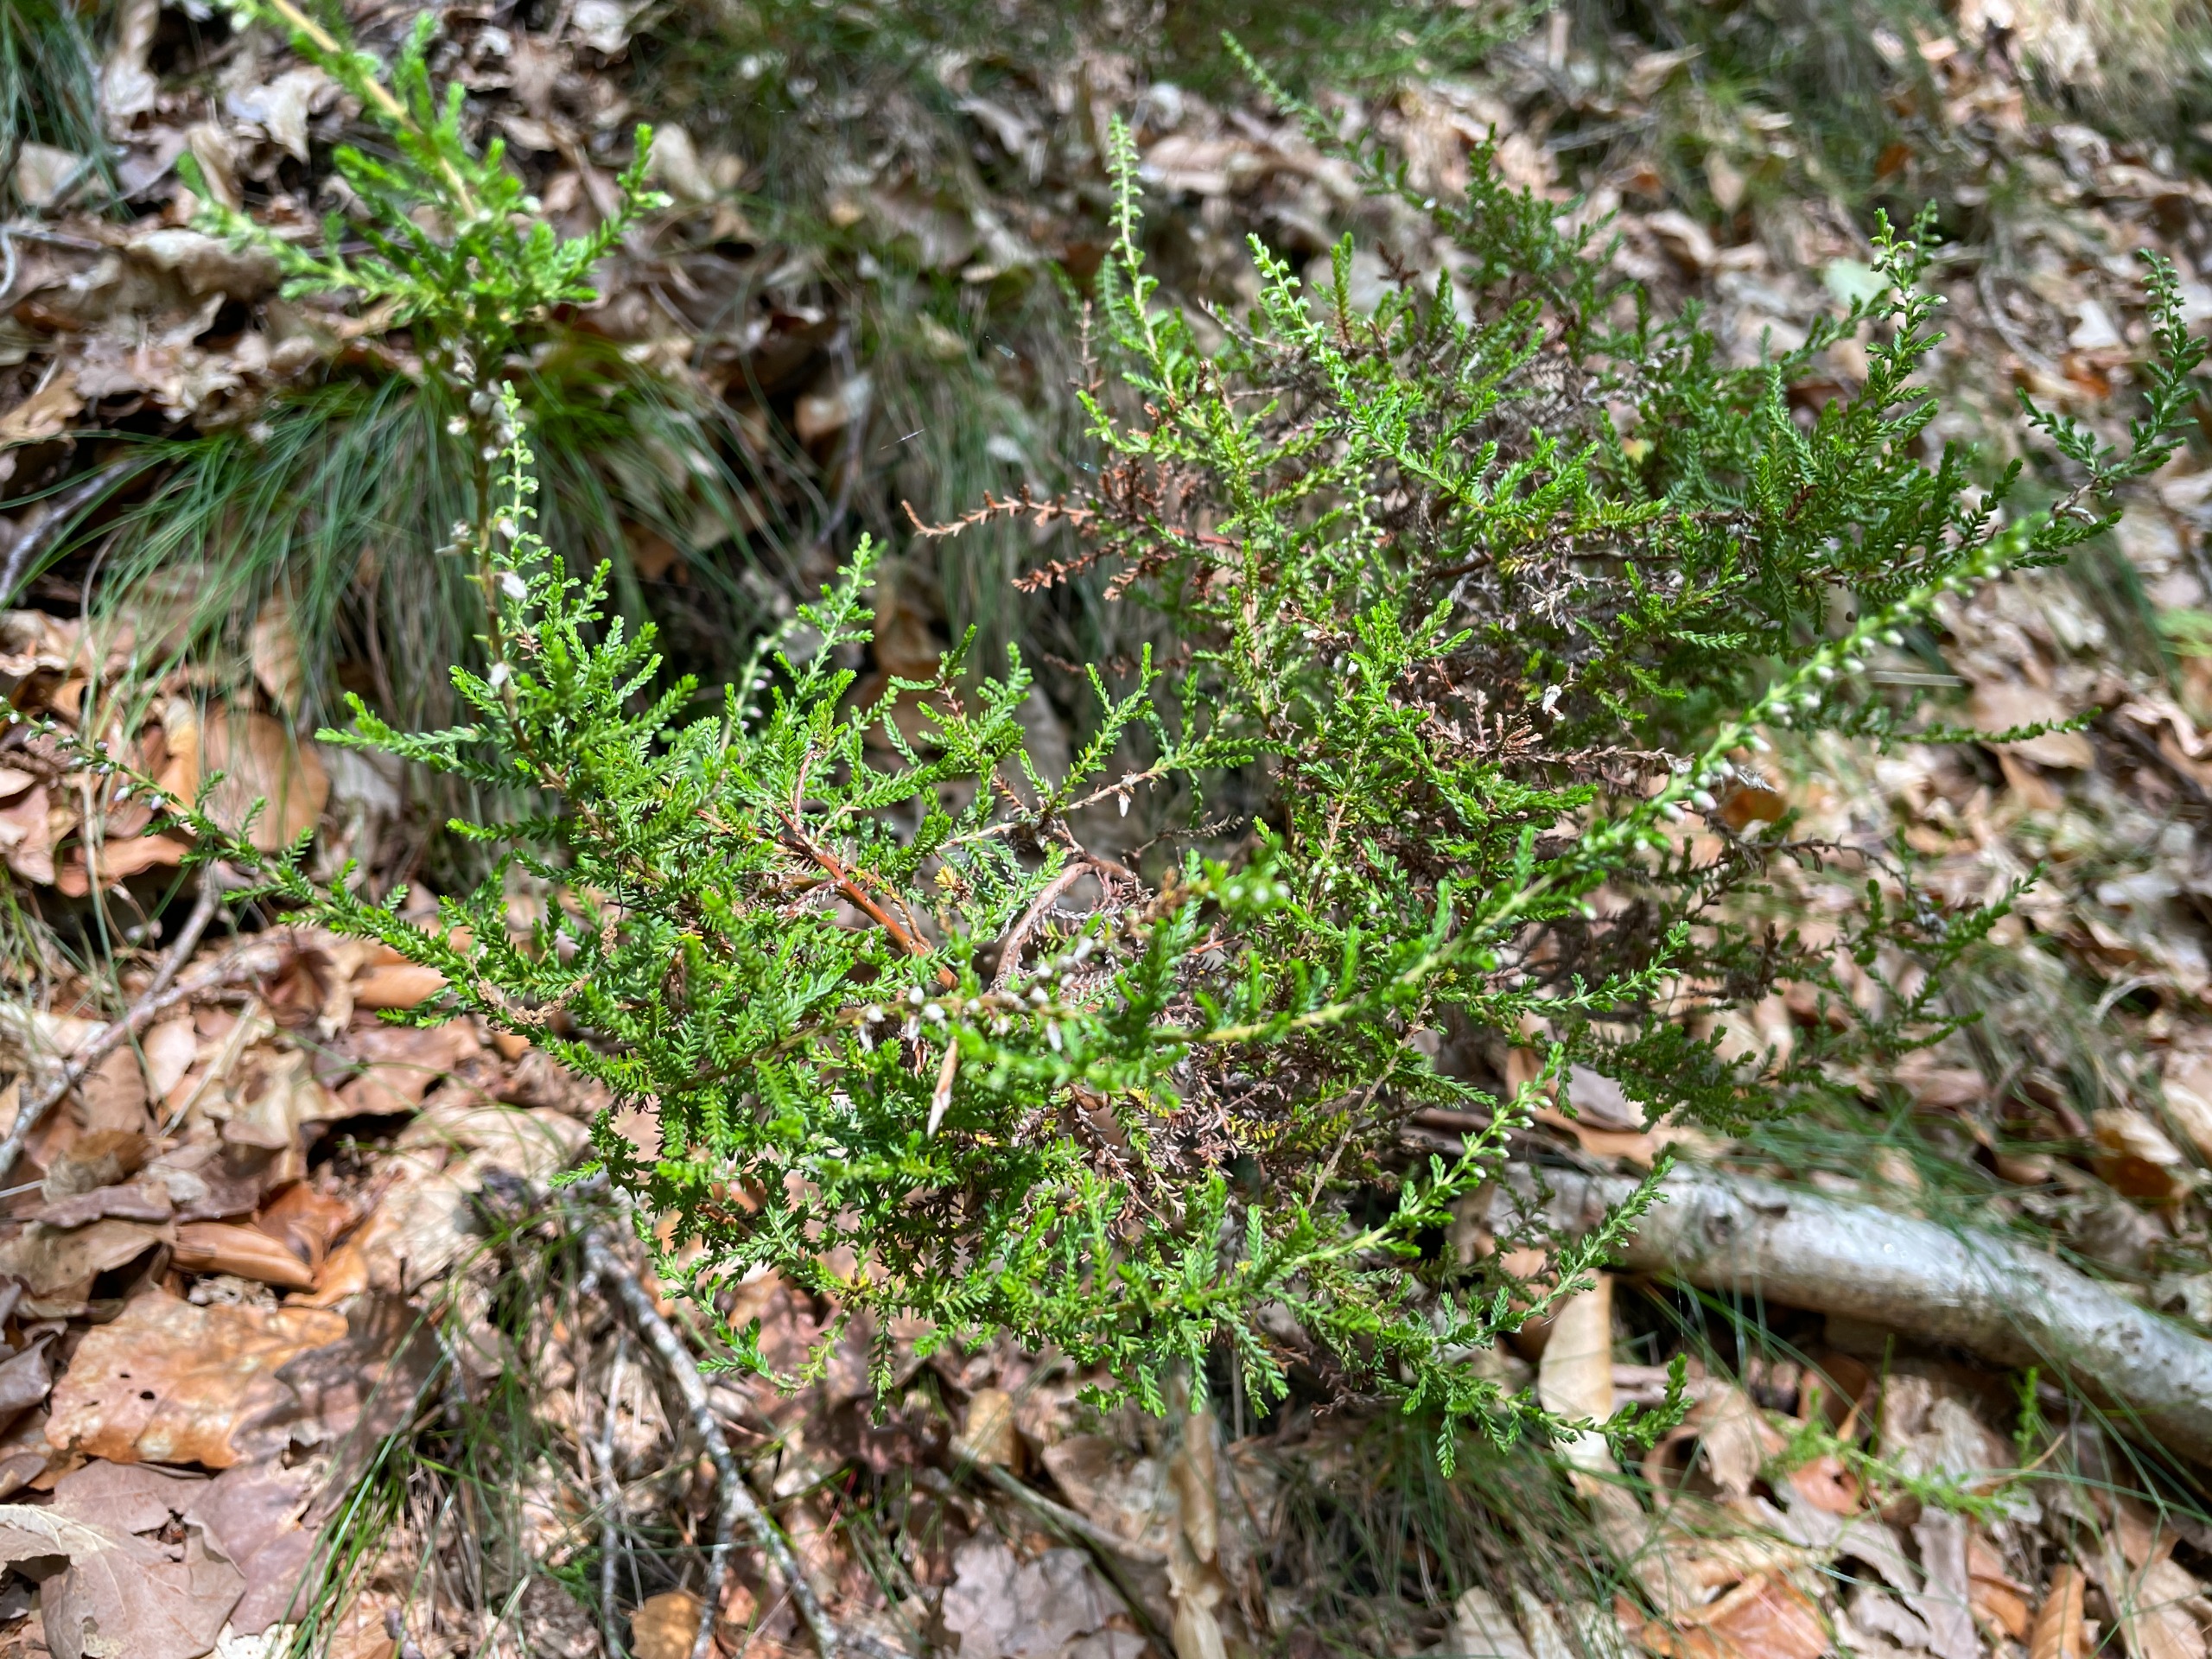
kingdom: Plantae
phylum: Tracheophyta
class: Magnoliopsida
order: Ericales
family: Ericaceae
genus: Calluna
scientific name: Calluna vulgaris
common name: Hedelyng
